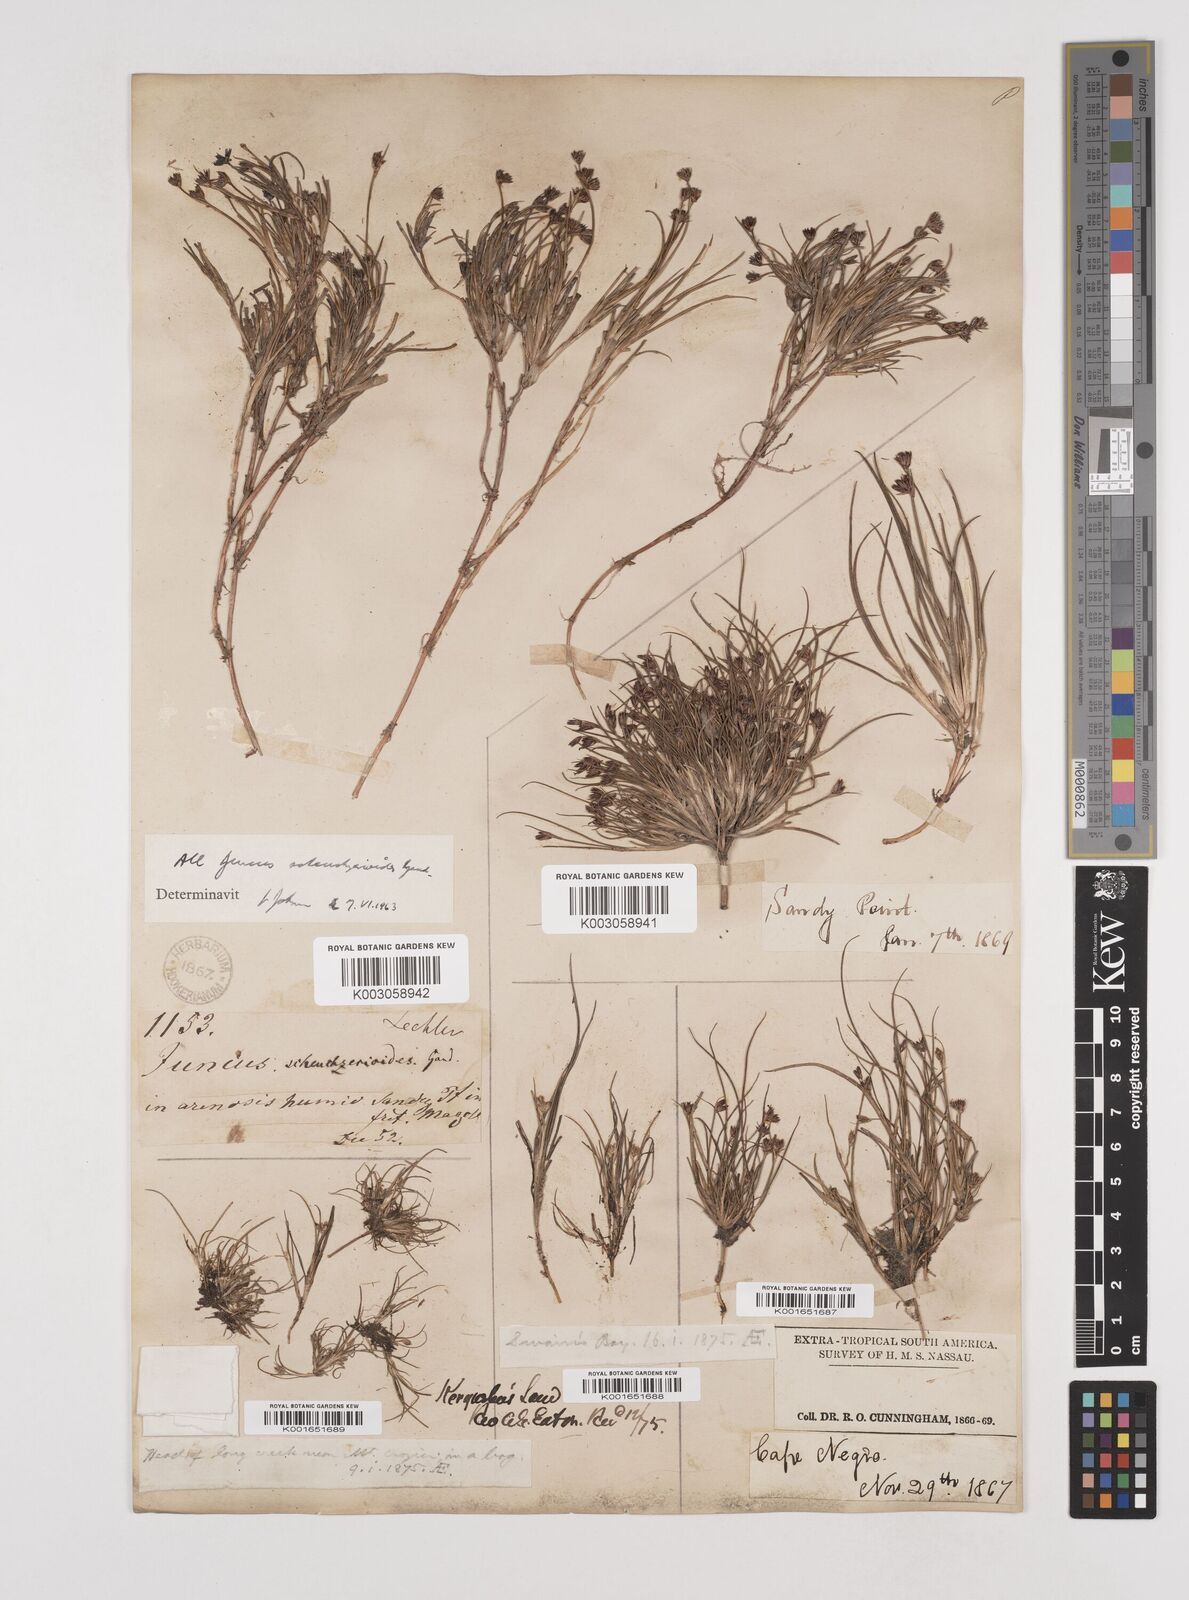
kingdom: Plantae
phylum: Tracheophyta
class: Liliopsida
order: Poales
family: Juncaceae
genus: Juncus
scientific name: Juncus scheuchzerioides
